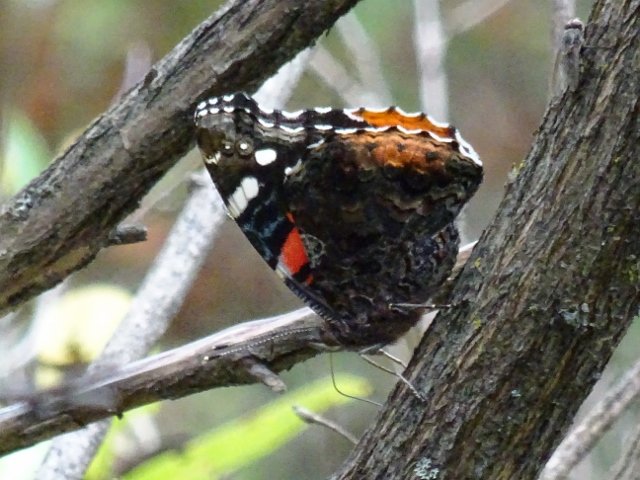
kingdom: Animalia
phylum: Arthropoda
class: Insecta
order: Lepidoptera
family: Nymphalidae
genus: Vanessa
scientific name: Vanessa atalanta
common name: Red Admiral
